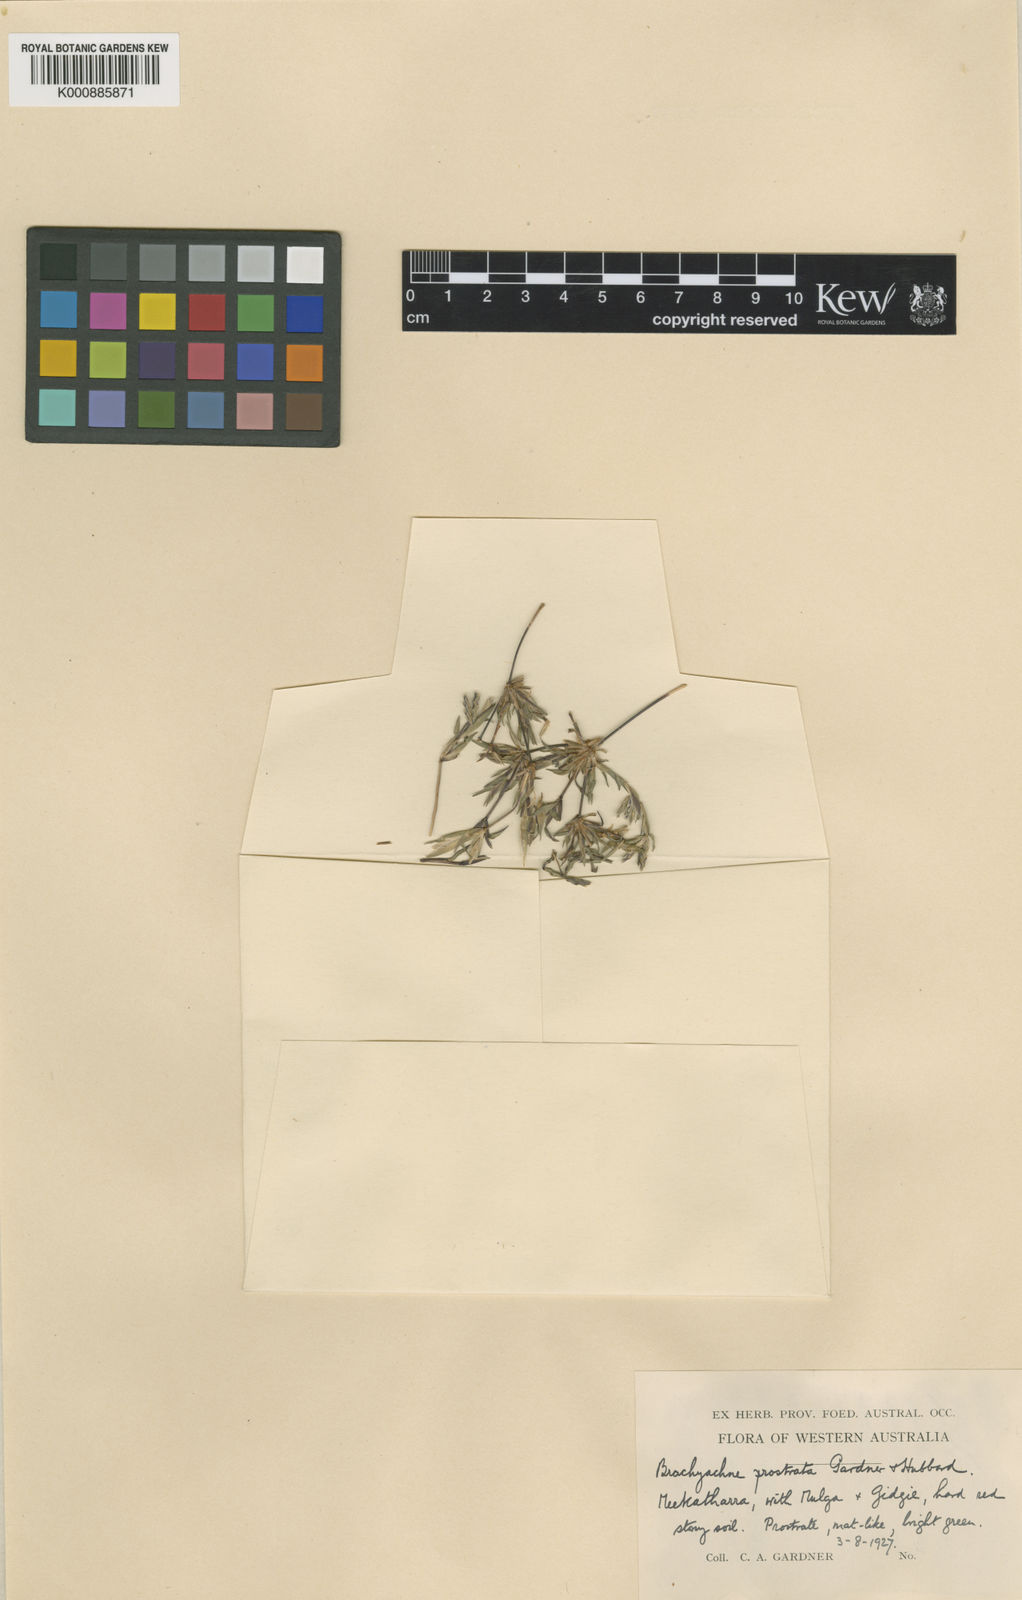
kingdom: Plantae
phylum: Tracheophyta
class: Liliopsida
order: Poales
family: Poaceae
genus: Cynodon
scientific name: Cynodon prostratus
